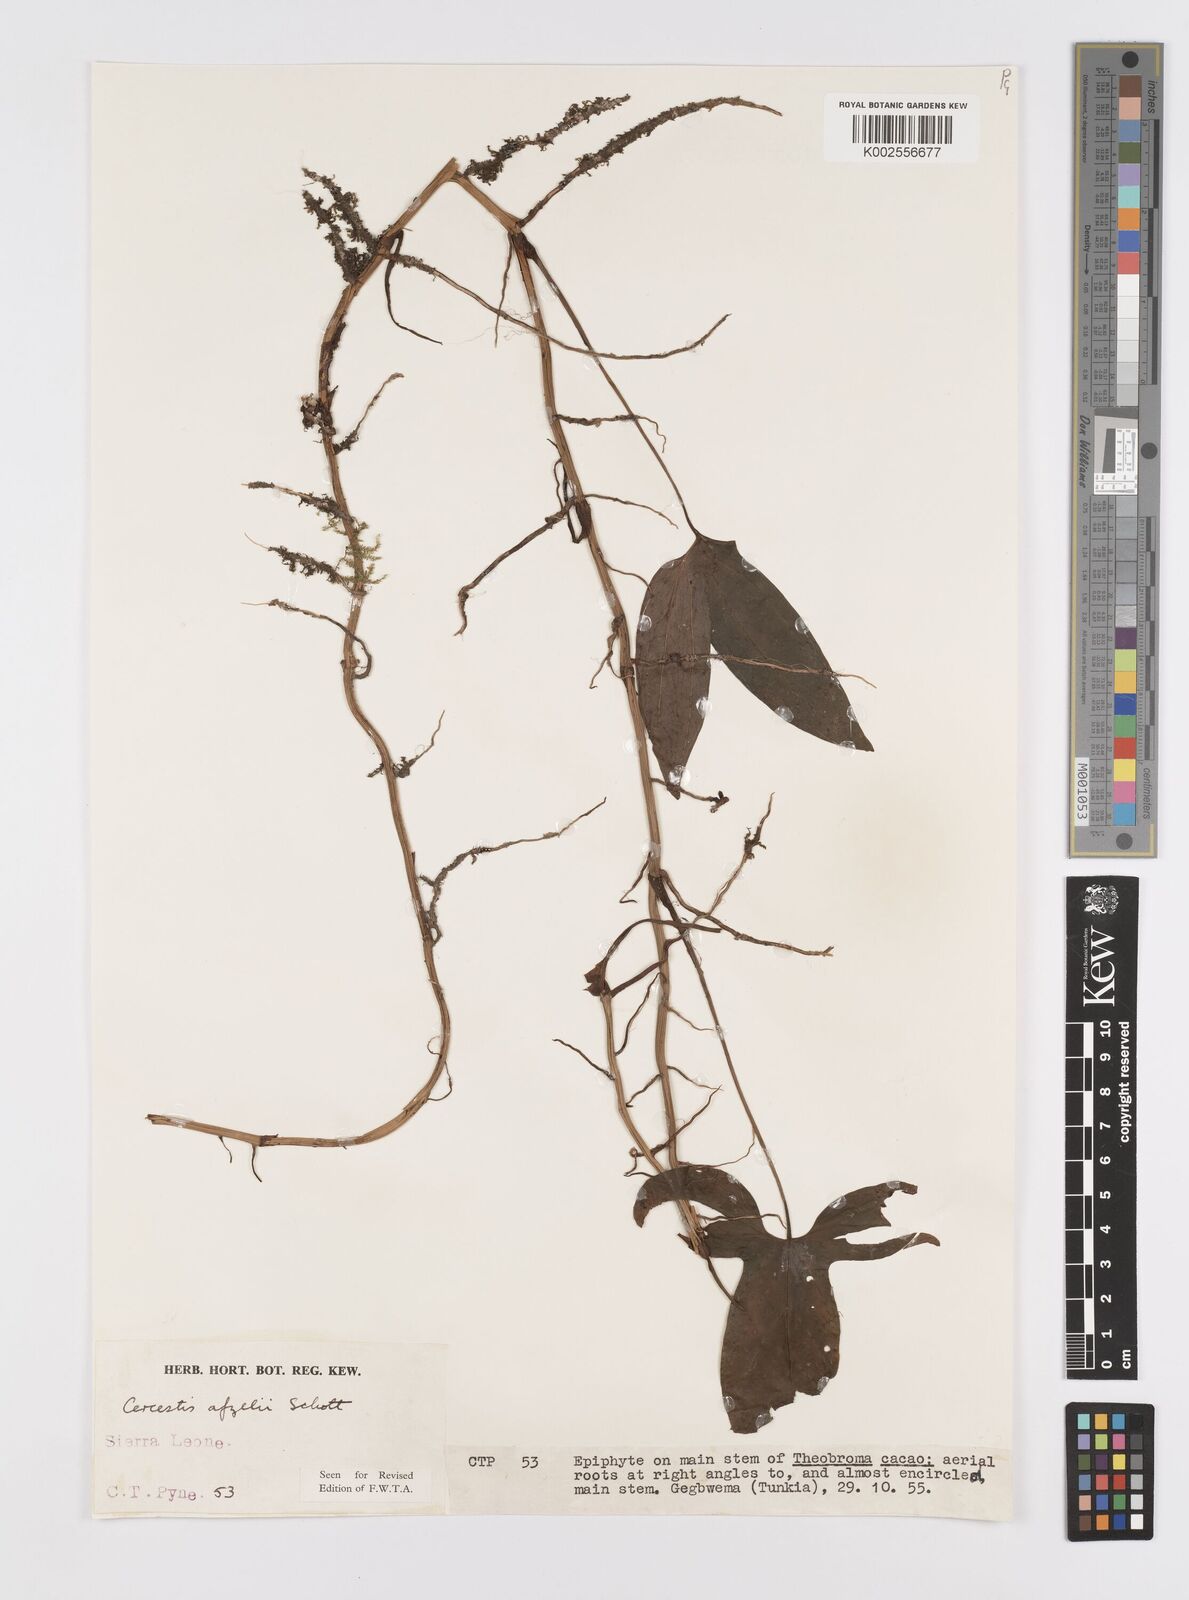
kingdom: Plantae
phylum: Tracheophyta
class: Liliopsida
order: Alismatales
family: Araceae
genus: Cercestis
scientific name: Cercestis afzelii
